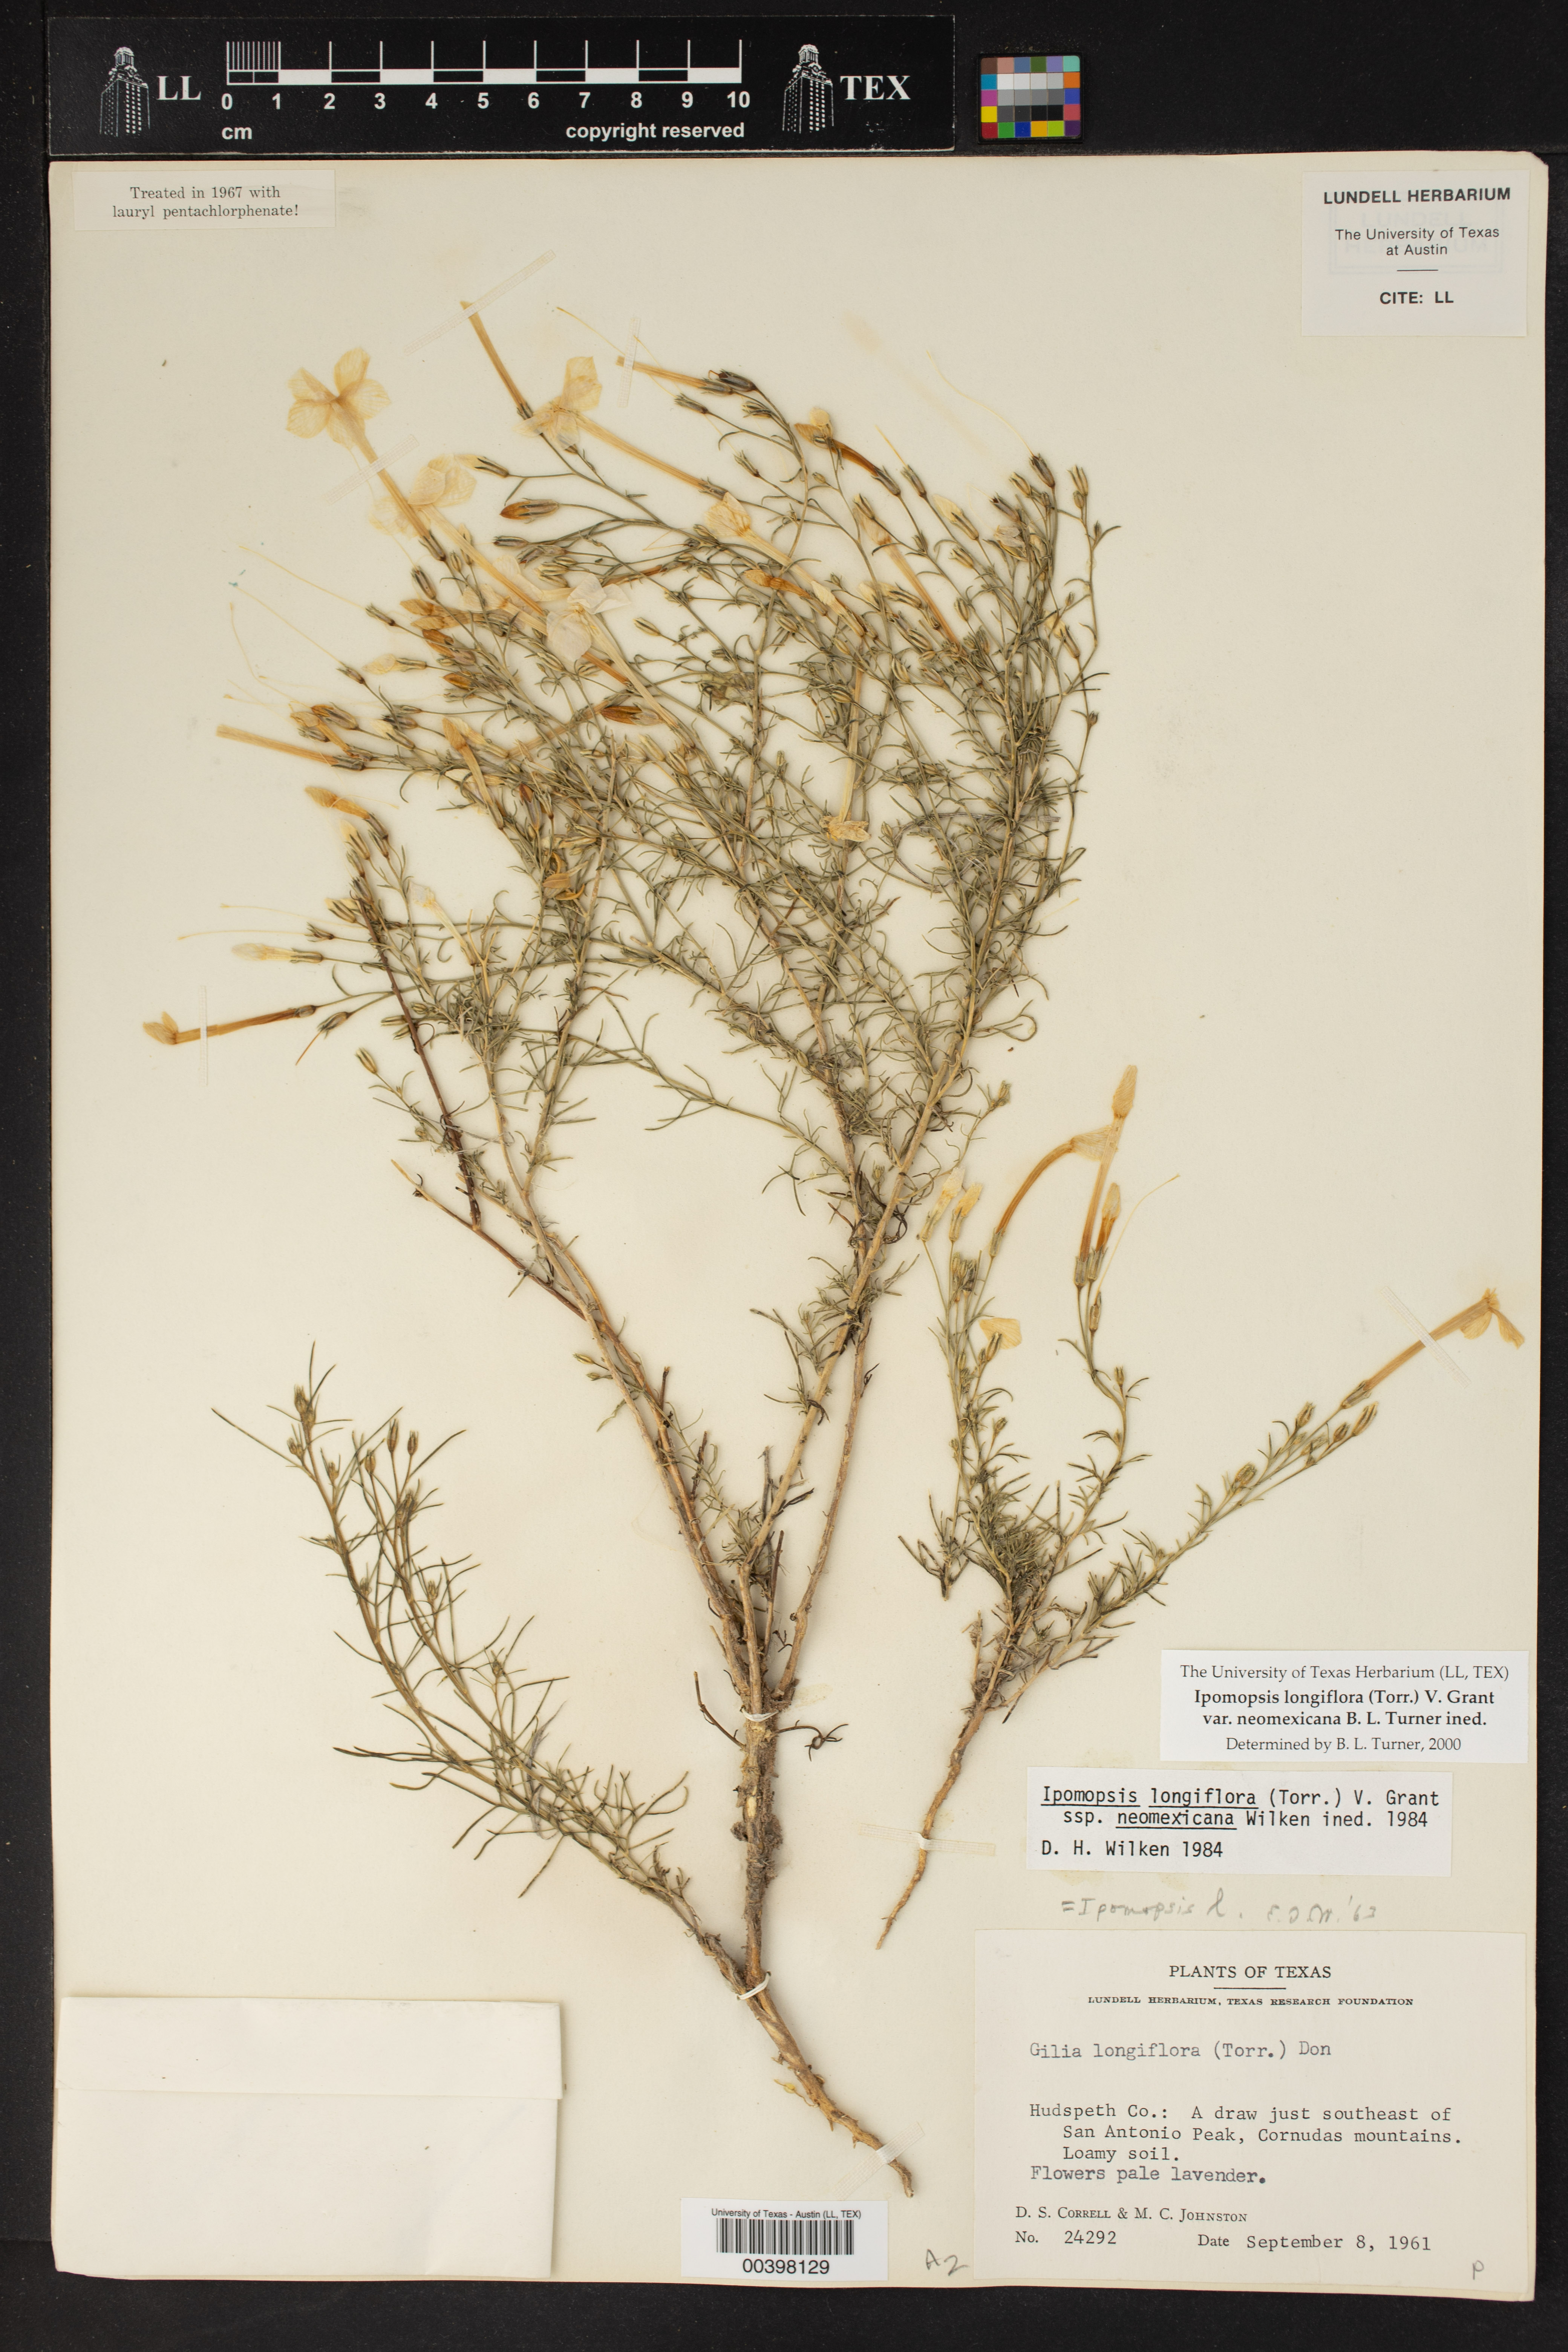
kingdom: Plantae
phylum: Tracheophyta
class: Magnoliopsida
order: Ericales
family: Polemoniaceae
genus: Ipomopsis
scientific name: Ipomopsis longiflora
